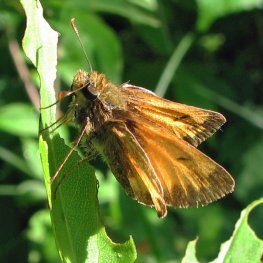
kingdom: Animalia
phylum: Arthropoda
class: Insecta
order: Lepidoptera
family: Hesperiidae
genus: Lon
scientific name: Lon hobomok
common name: Hobomok Skipper
